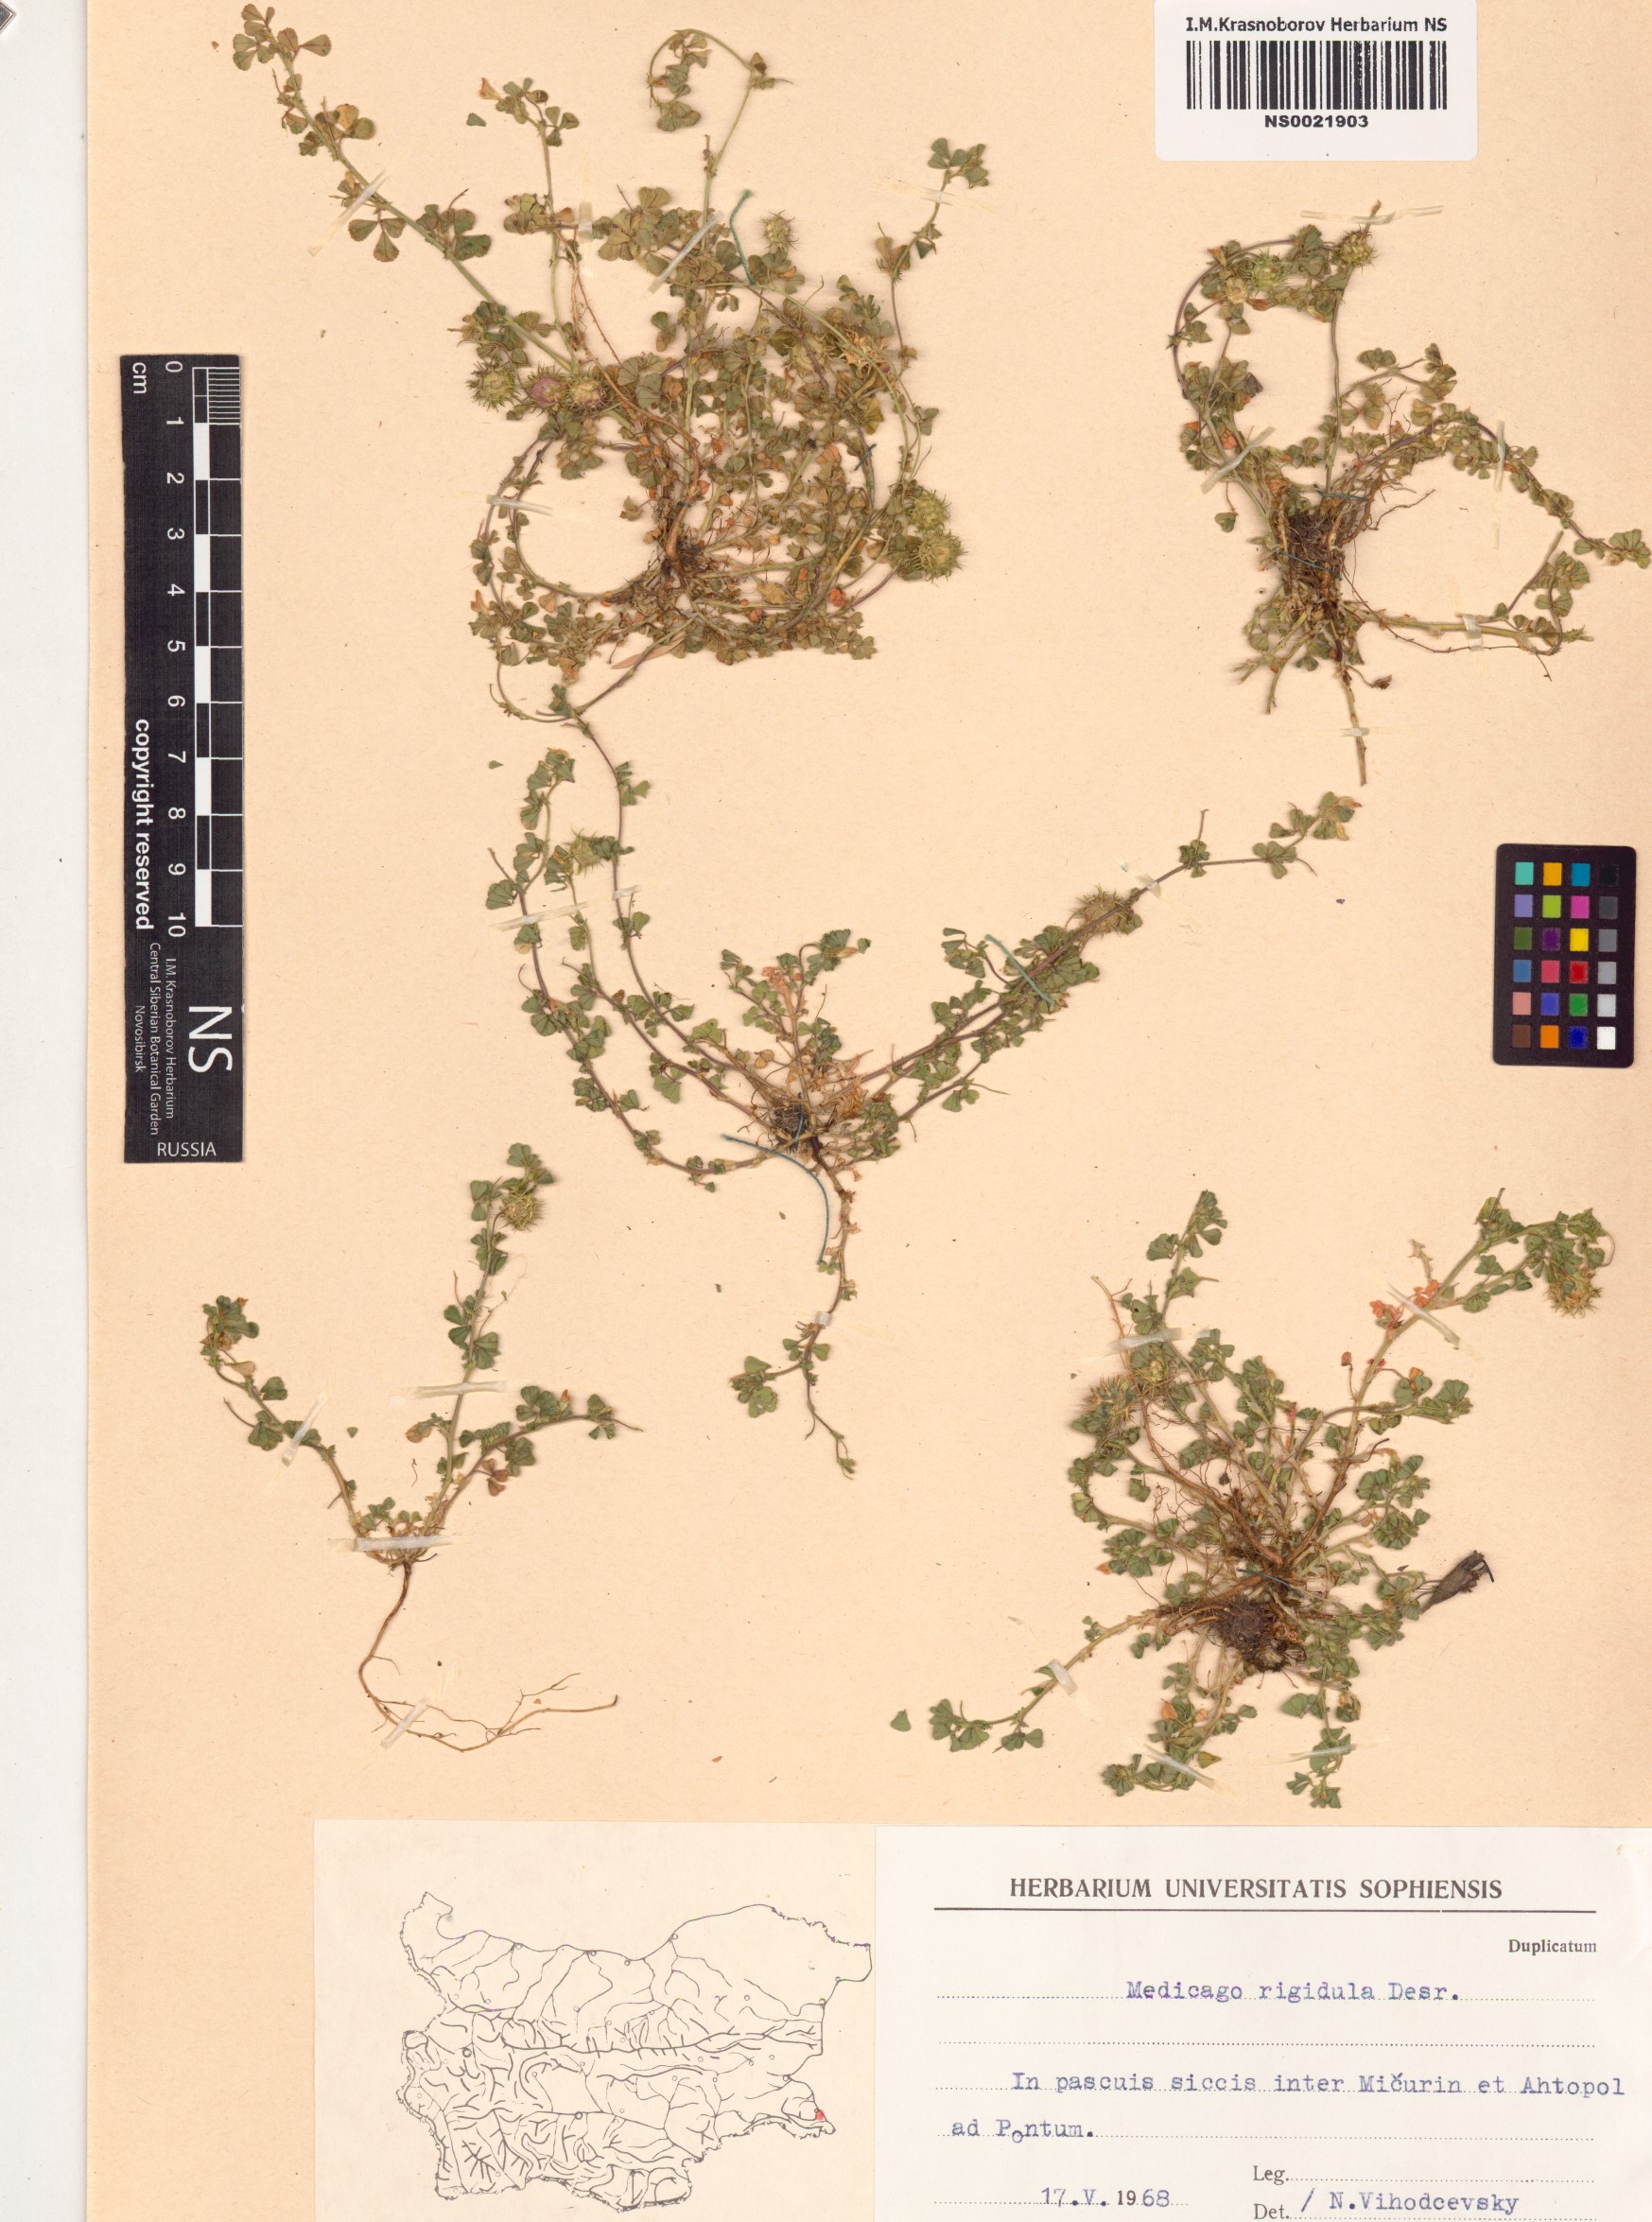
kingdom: Plantae
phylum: Tracheophyta
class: Magnoliopsida
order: Fabales
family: Fabaceae
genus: Medicago
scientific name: Medicago rigidula
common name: Tifton medic
